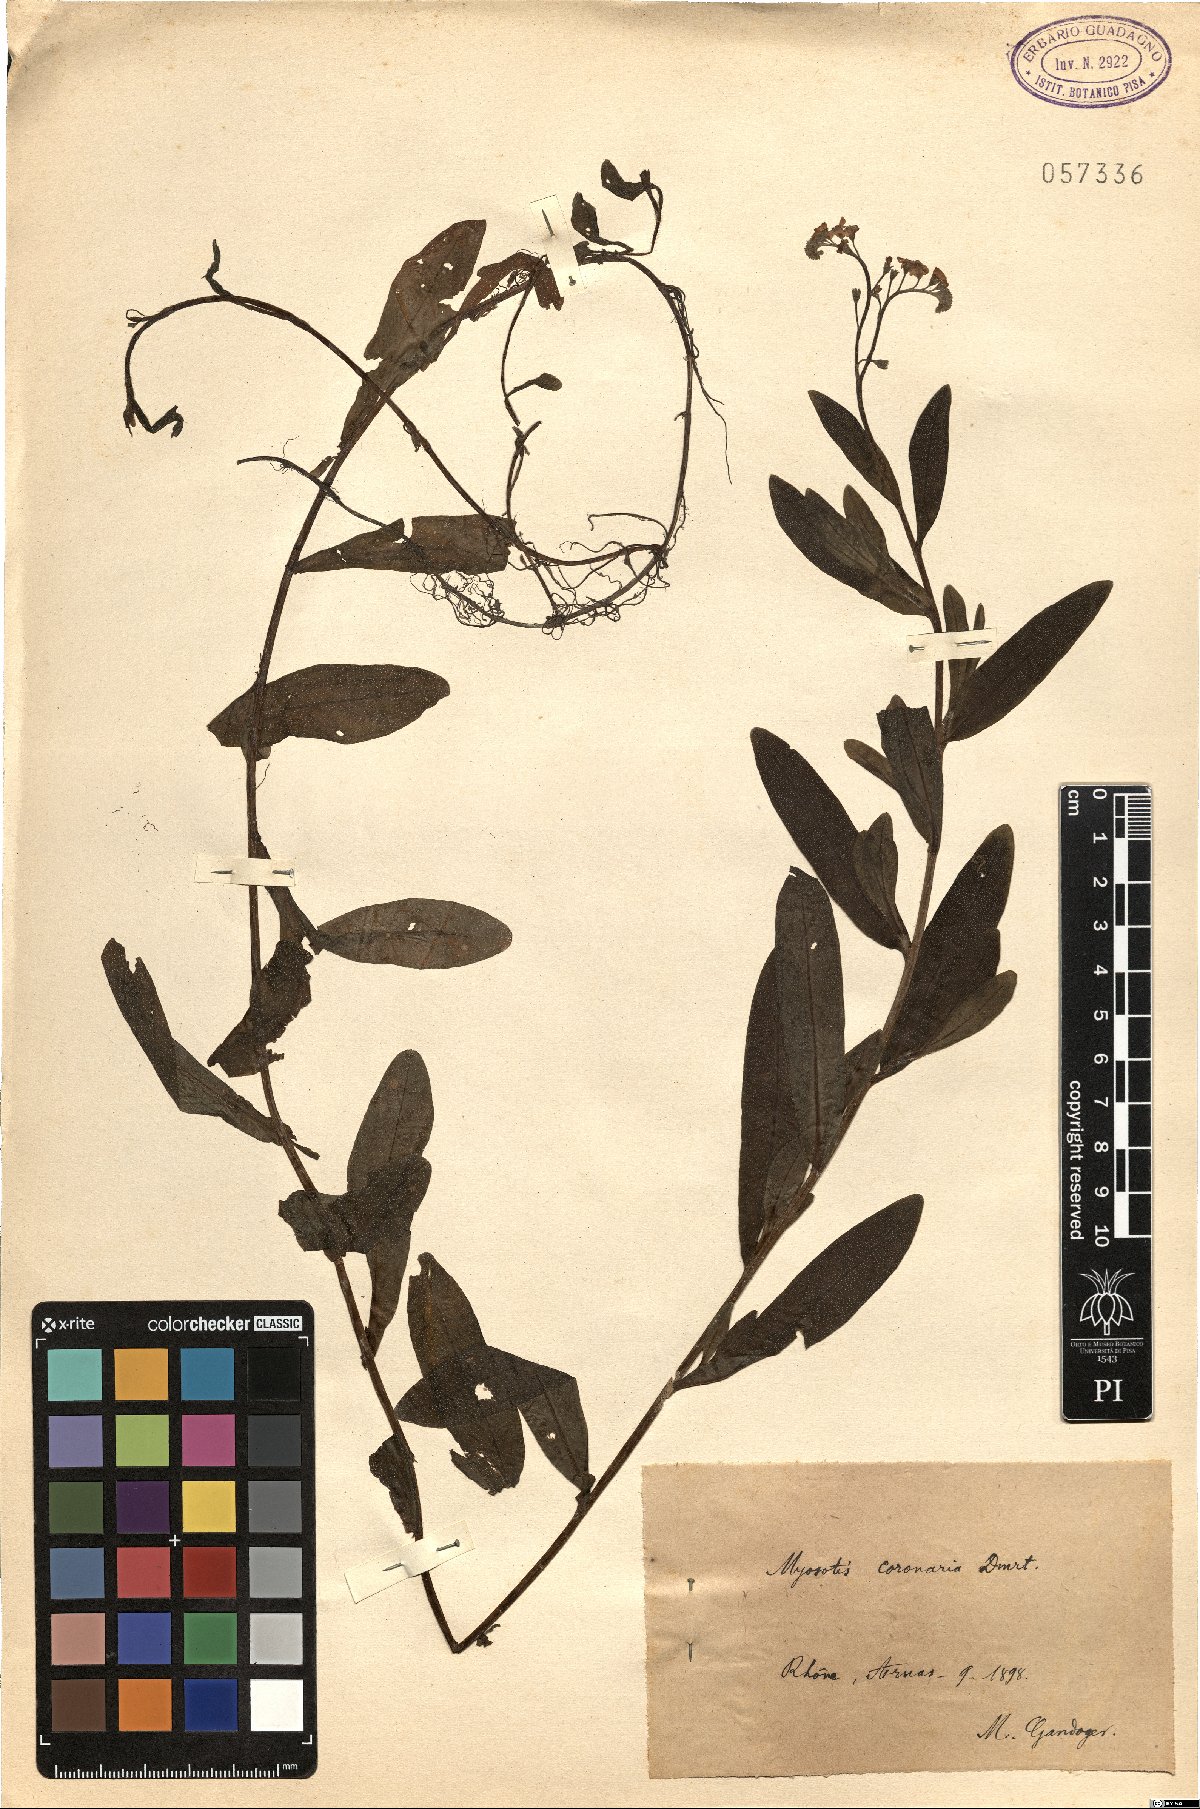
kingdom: Plantae
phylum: Tracheophyta
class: Magnoliopsida
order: Boraginales
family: Boraginaceae
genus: Myosotis
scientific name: Myosotis scorpioides
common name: Water forget-me-not
